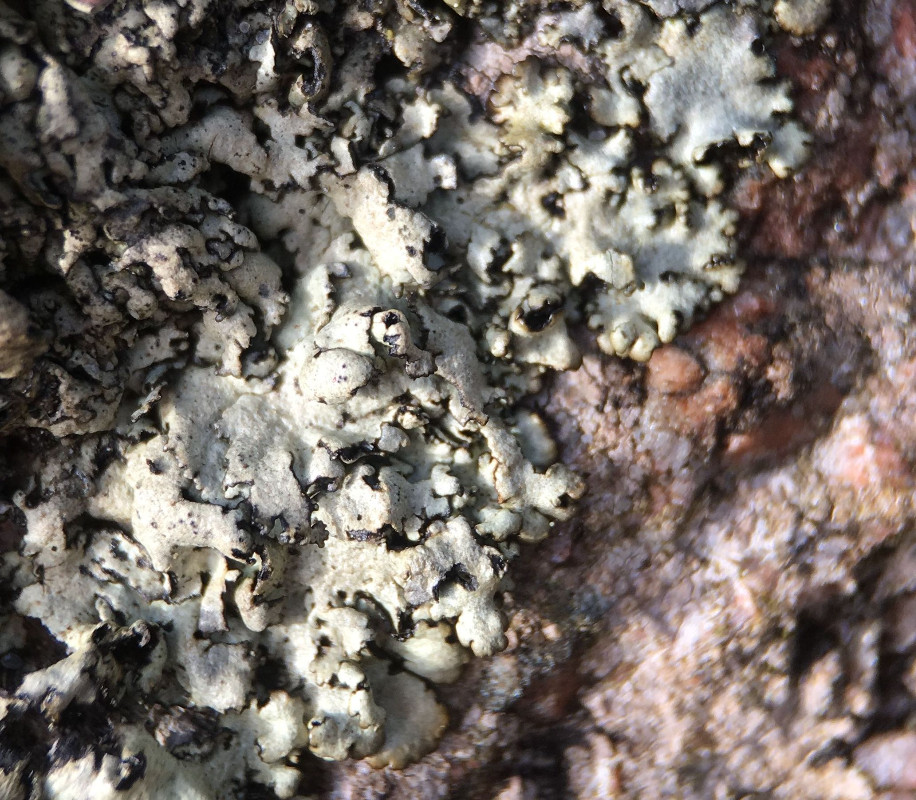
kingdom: Fungi
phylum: Ascomycota
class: Lecanoromycetes
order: Lecanorales
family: Parmeliaceae
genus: Xanthoparmelia
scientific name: Xanthoparmelia stenophylla
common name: Shingled rock shield
